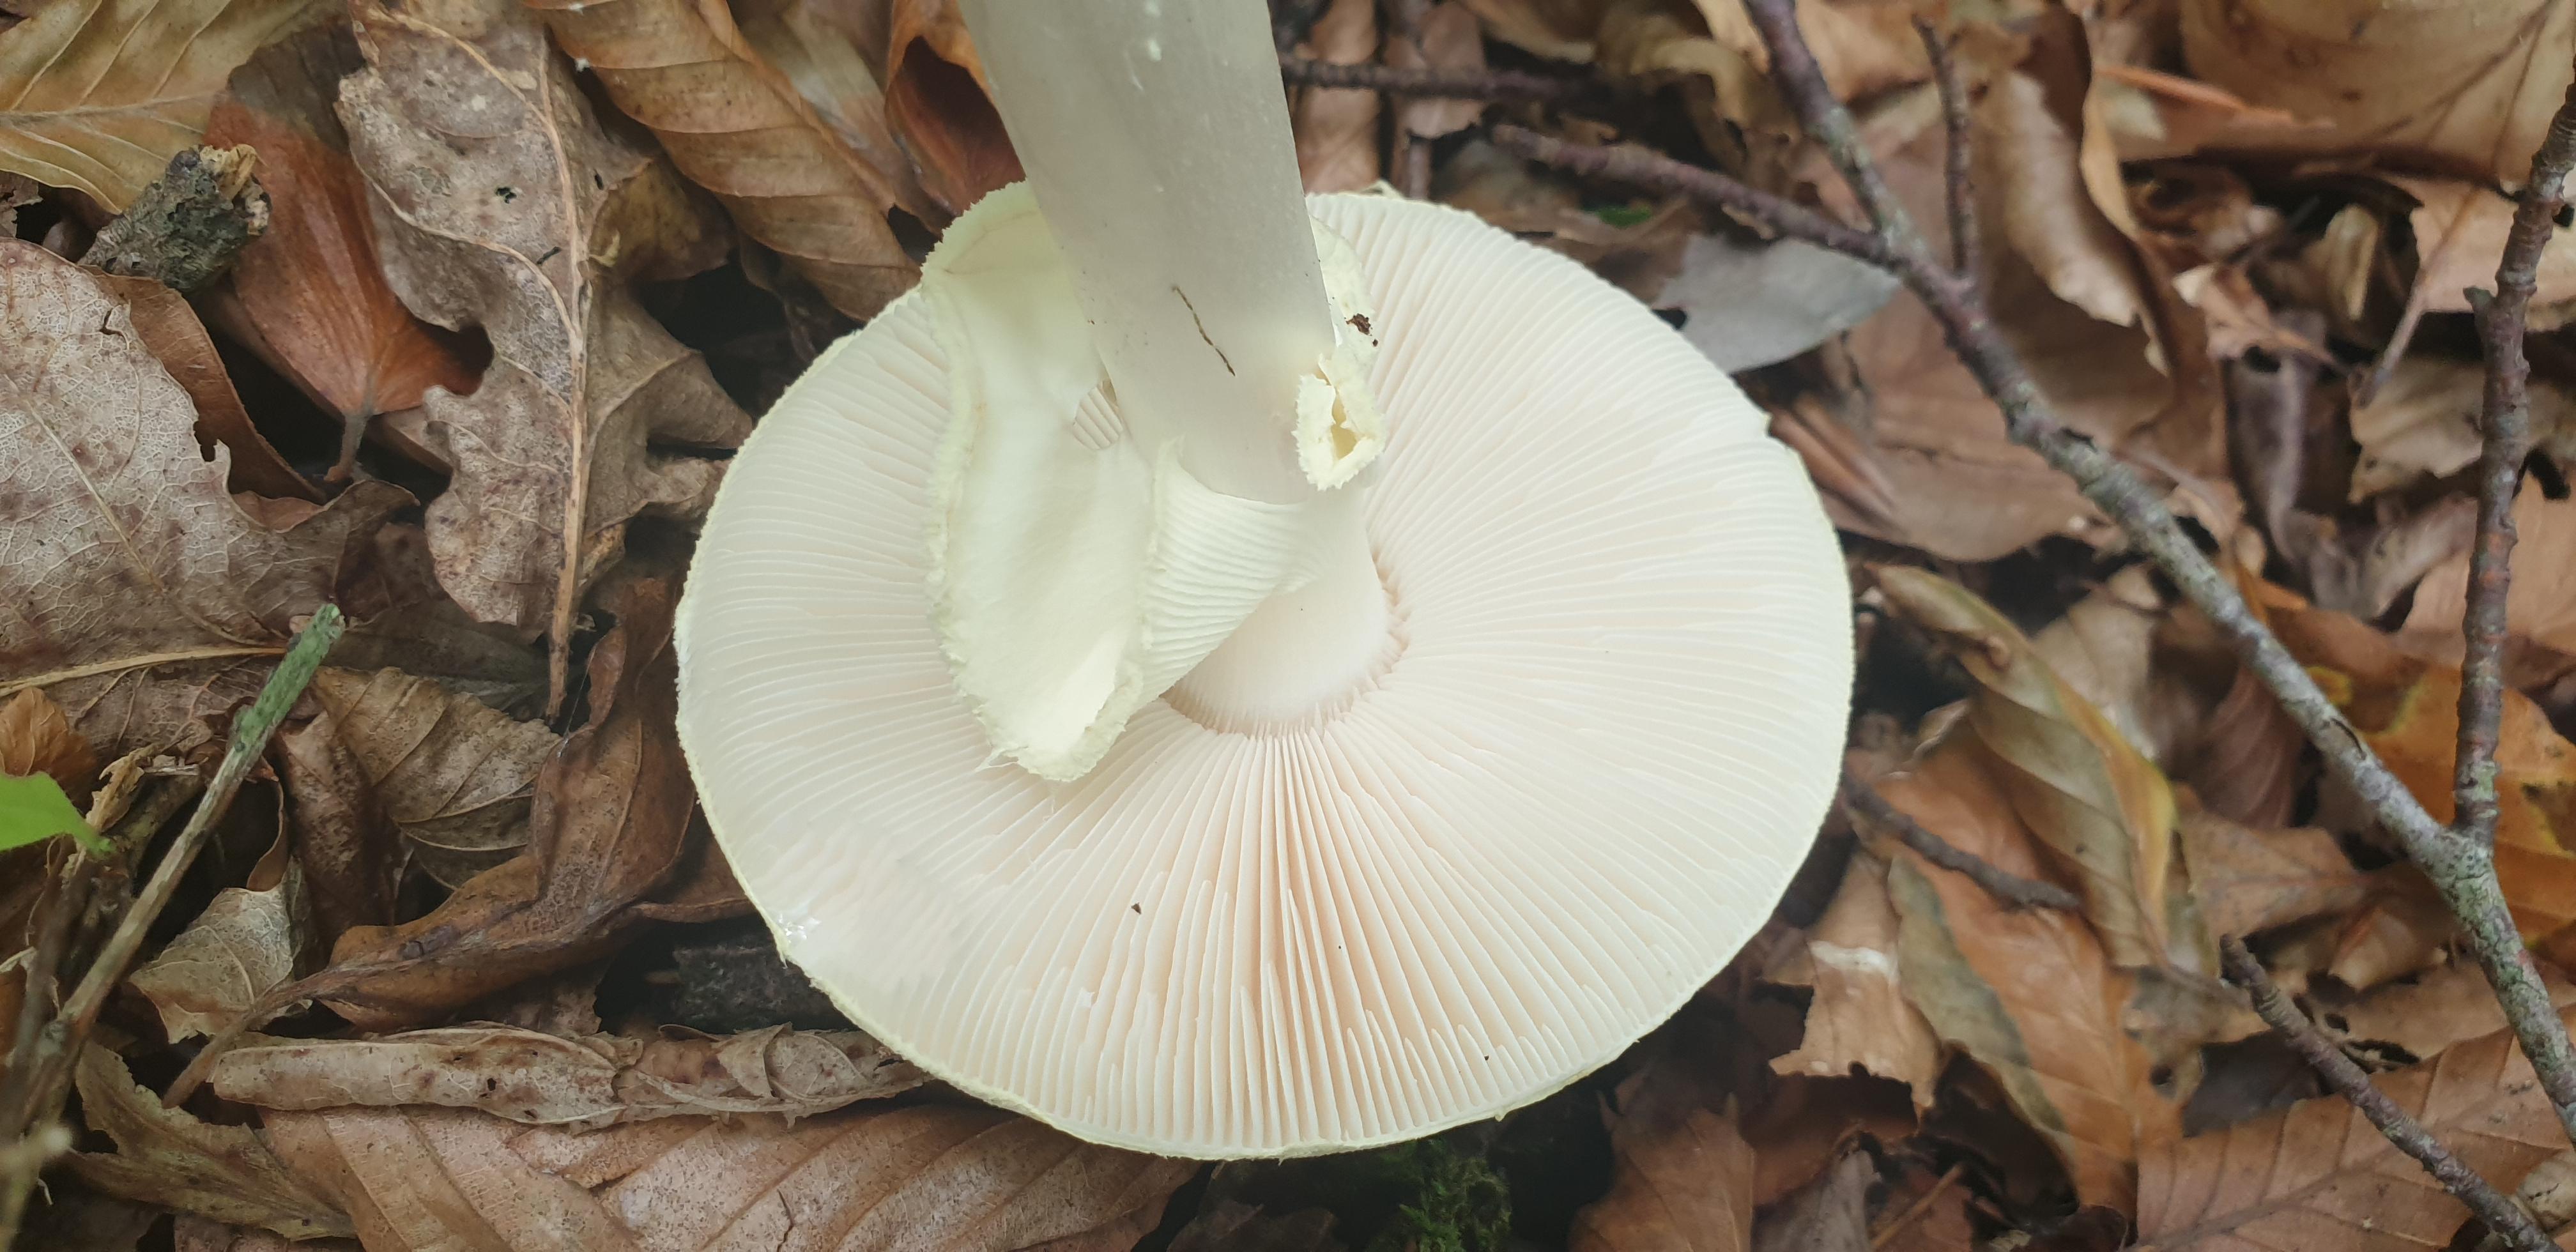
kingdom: Fungi
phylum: Basidiomycota
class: Agaricomycetes
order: Agaricales
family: Amanitaceae
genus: Amanita
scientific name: Amanita citrina
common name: kugleknoldet fluesvamp
